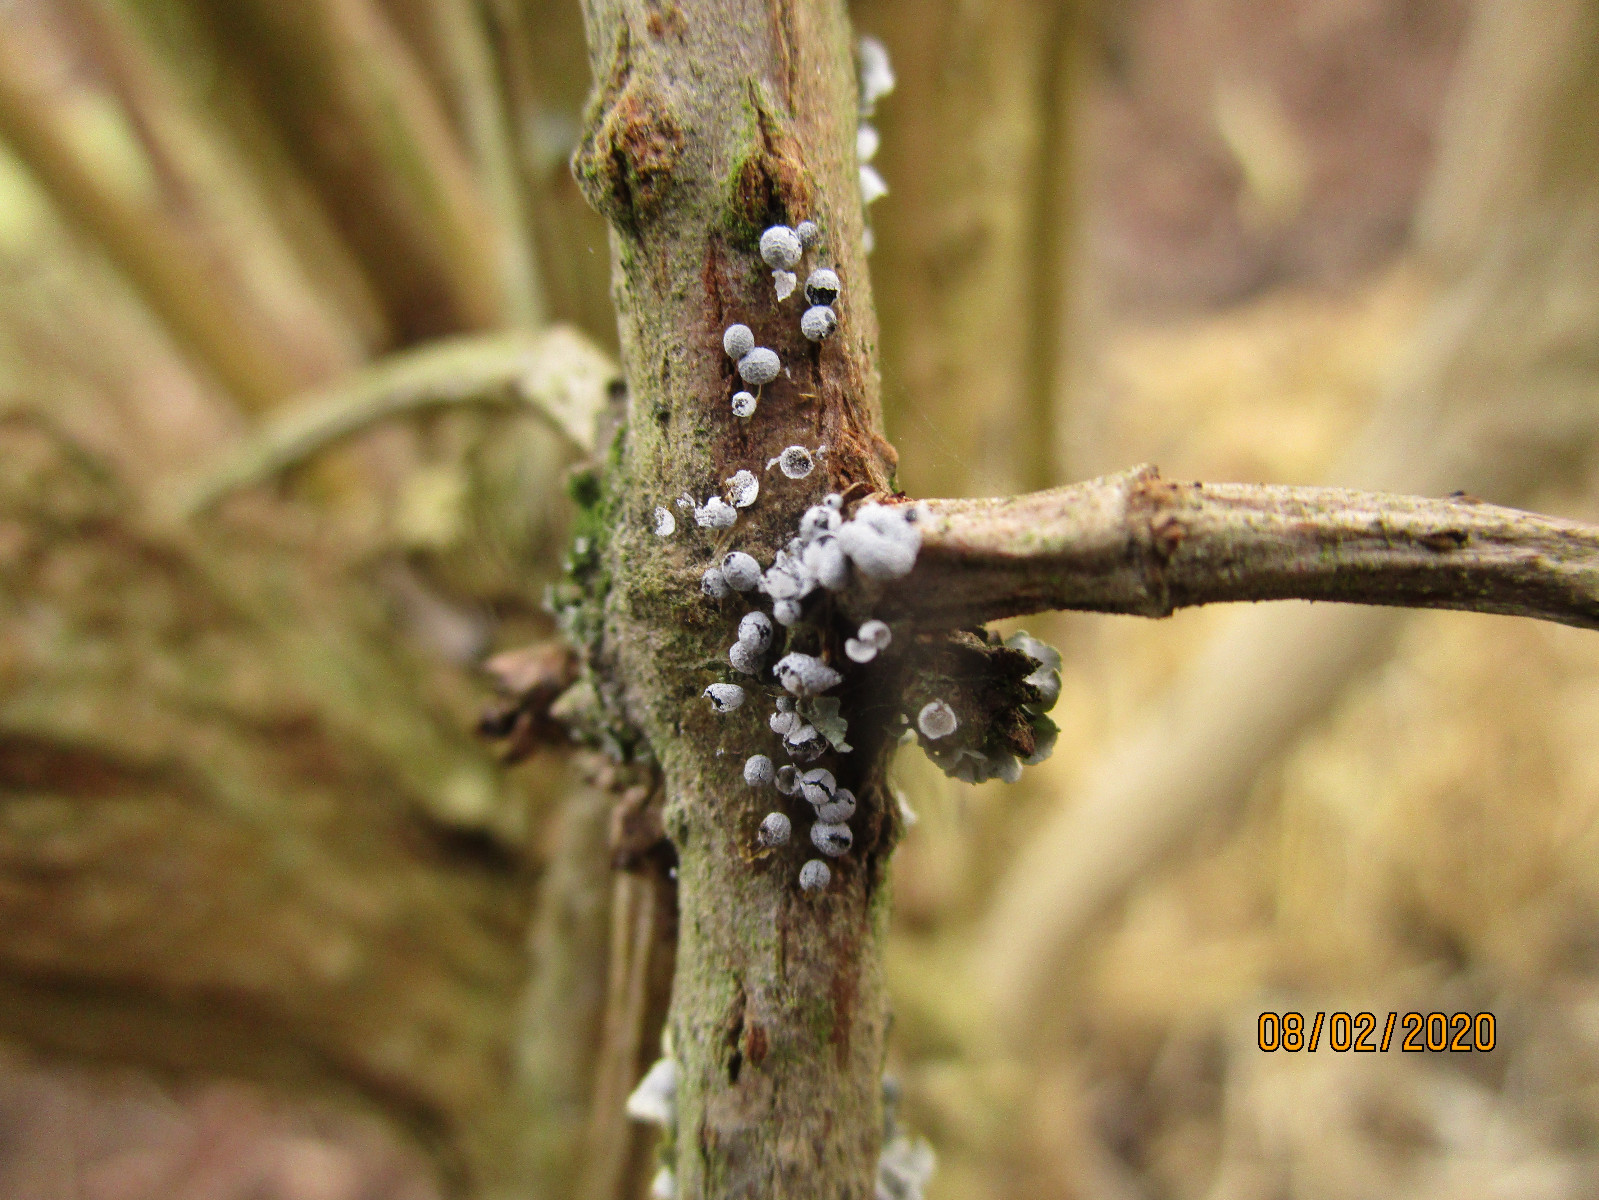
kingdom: Protozoa
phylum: Mycetozoa
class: Myxomycetes
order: Physarales
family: Physaraceae
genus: Badhamia
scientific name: Badhamia
